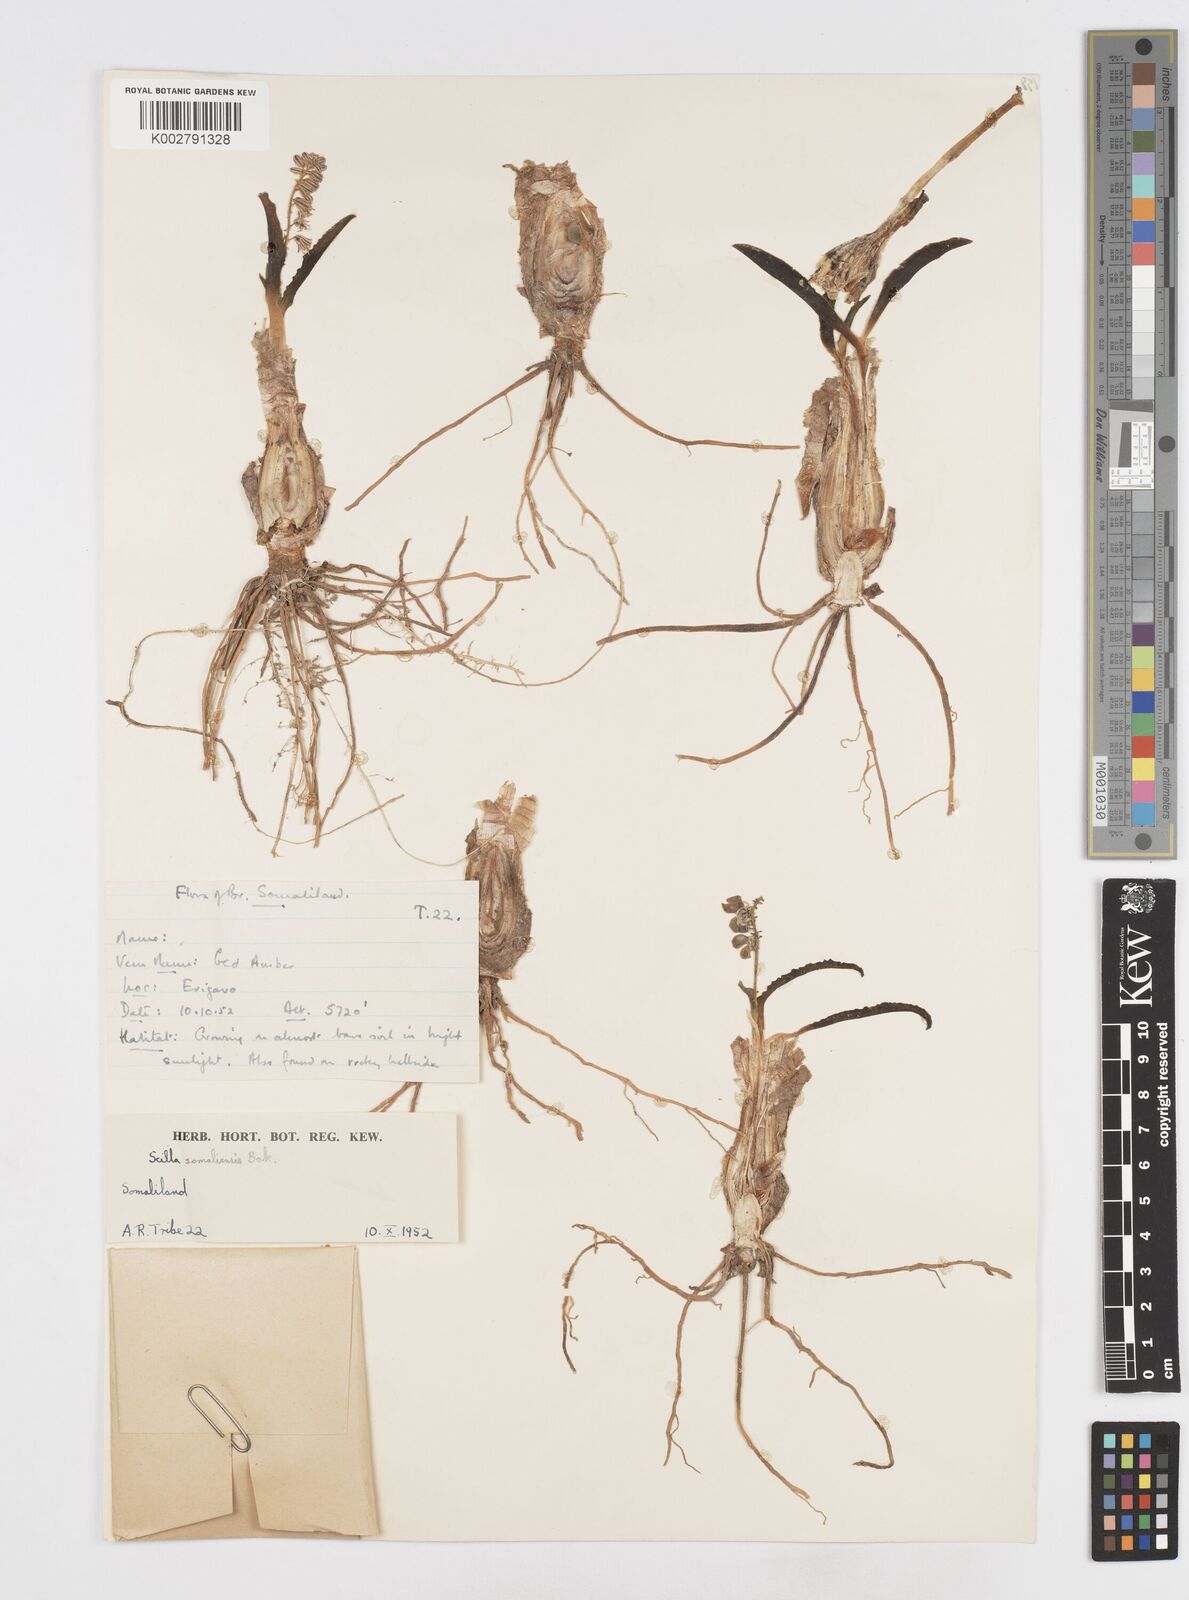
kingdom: Plantae
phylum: Tracheophyta
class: Liliopsida
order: Asparagales
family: Asparagaceae
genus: Scilla
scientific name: Scilla
